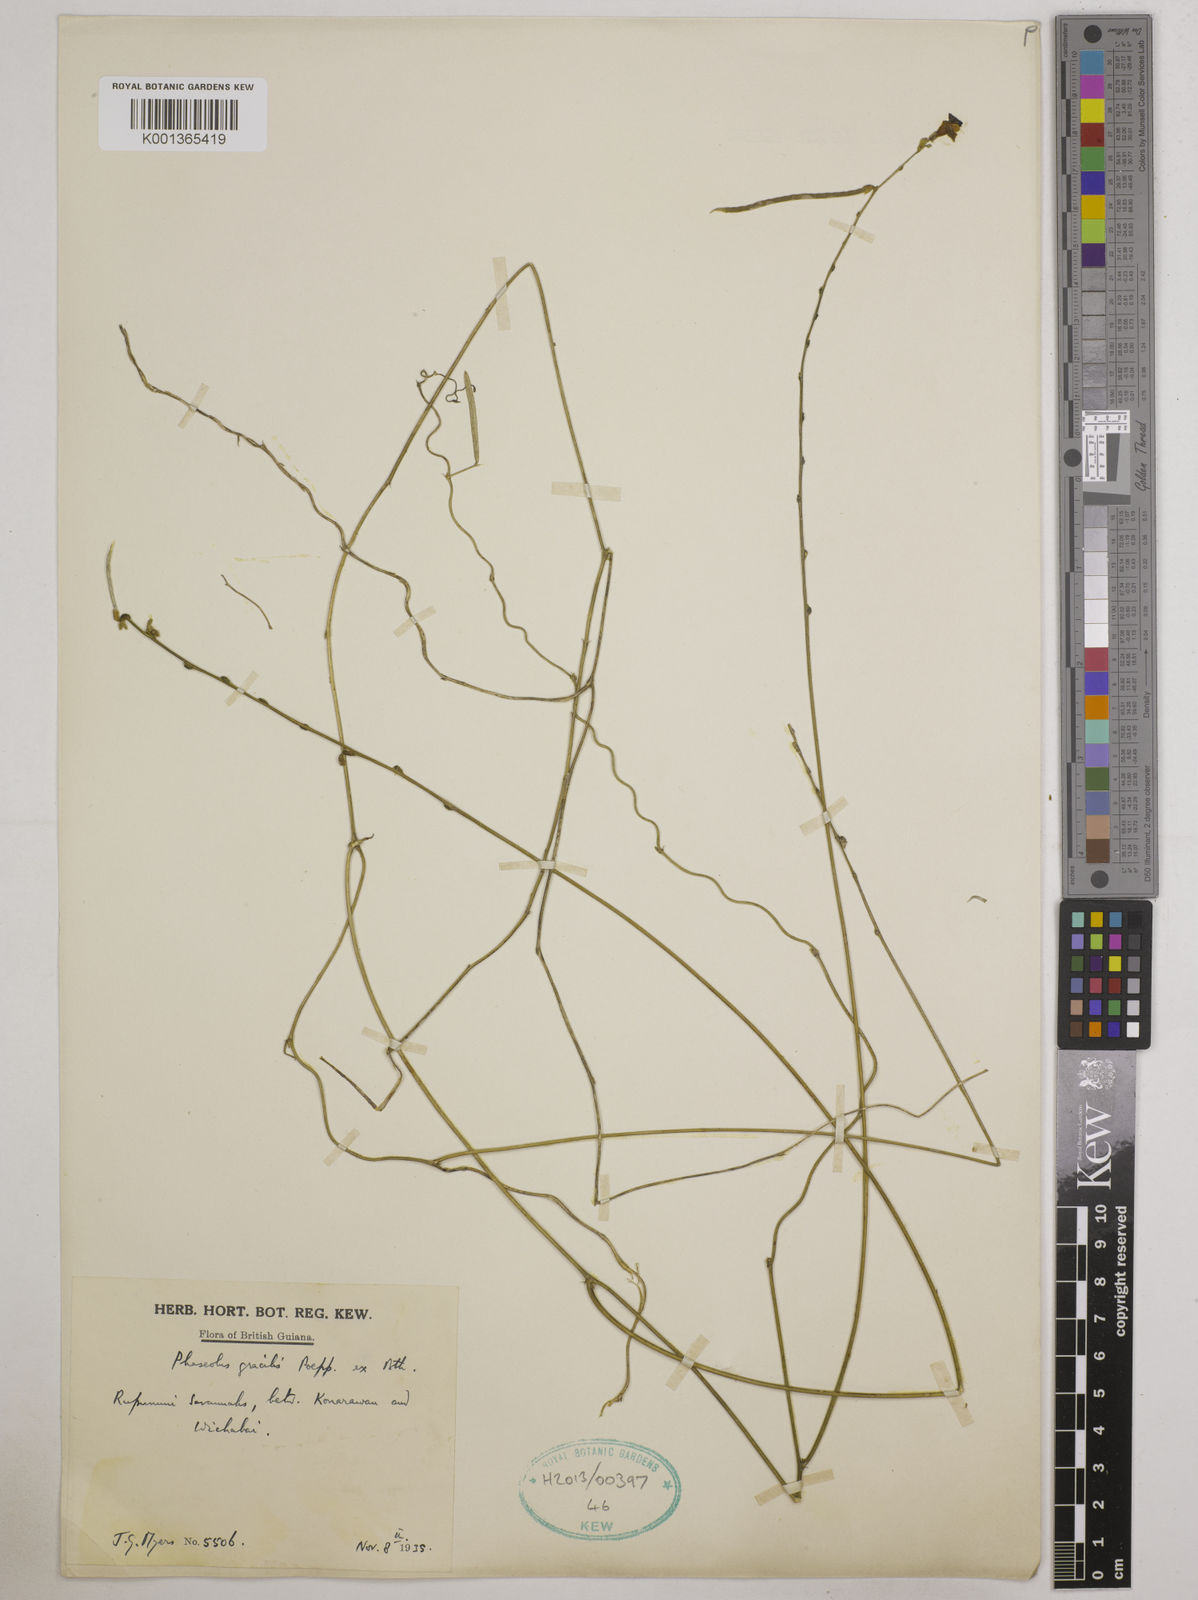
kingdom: Plantae
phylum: Tracheophyta
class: Magnoliopsida
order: Fabales
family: Fabaceae
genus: Macroptilium
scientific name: Macroptilium gracile
